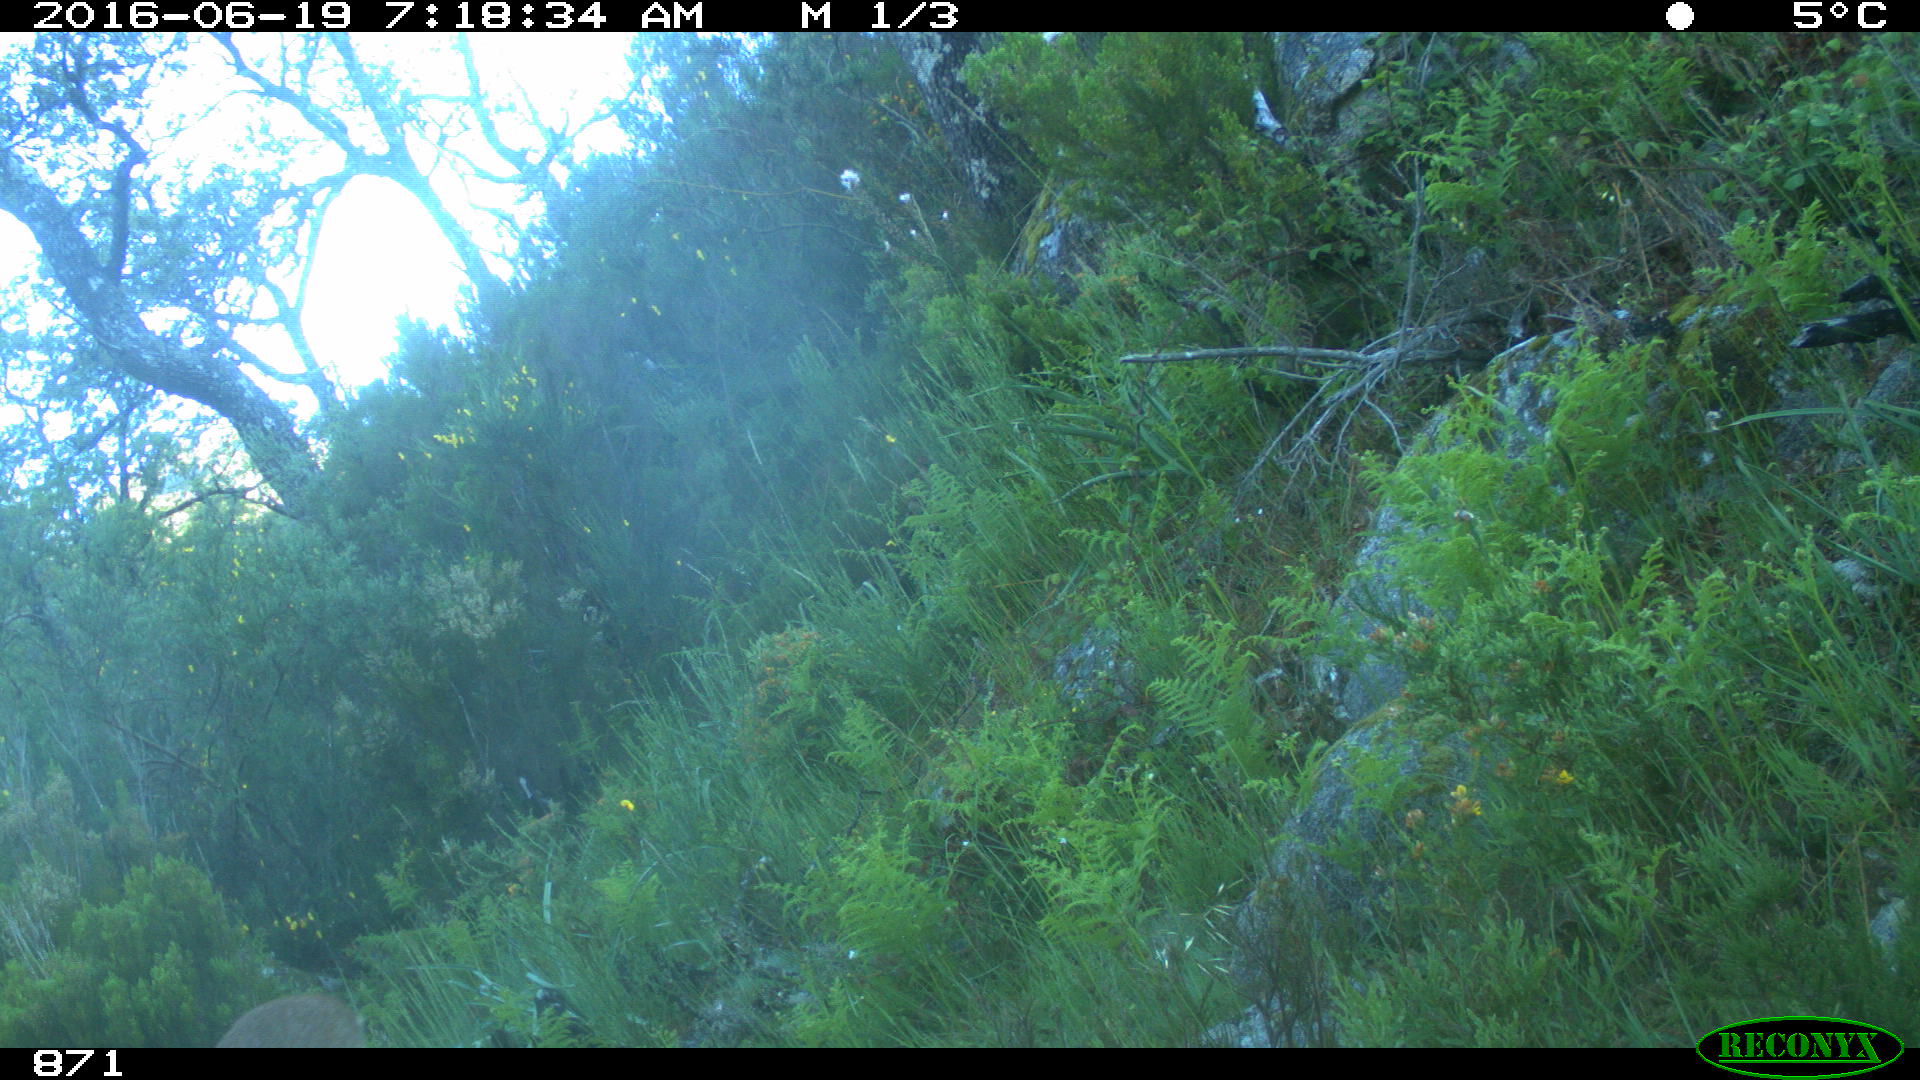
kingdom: Animalia
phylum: Chordata
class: Mammalia
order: Artiodactyla
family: Cervidae
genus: Capreolus
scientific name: Capreolus capreolus
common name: Western roe deer
